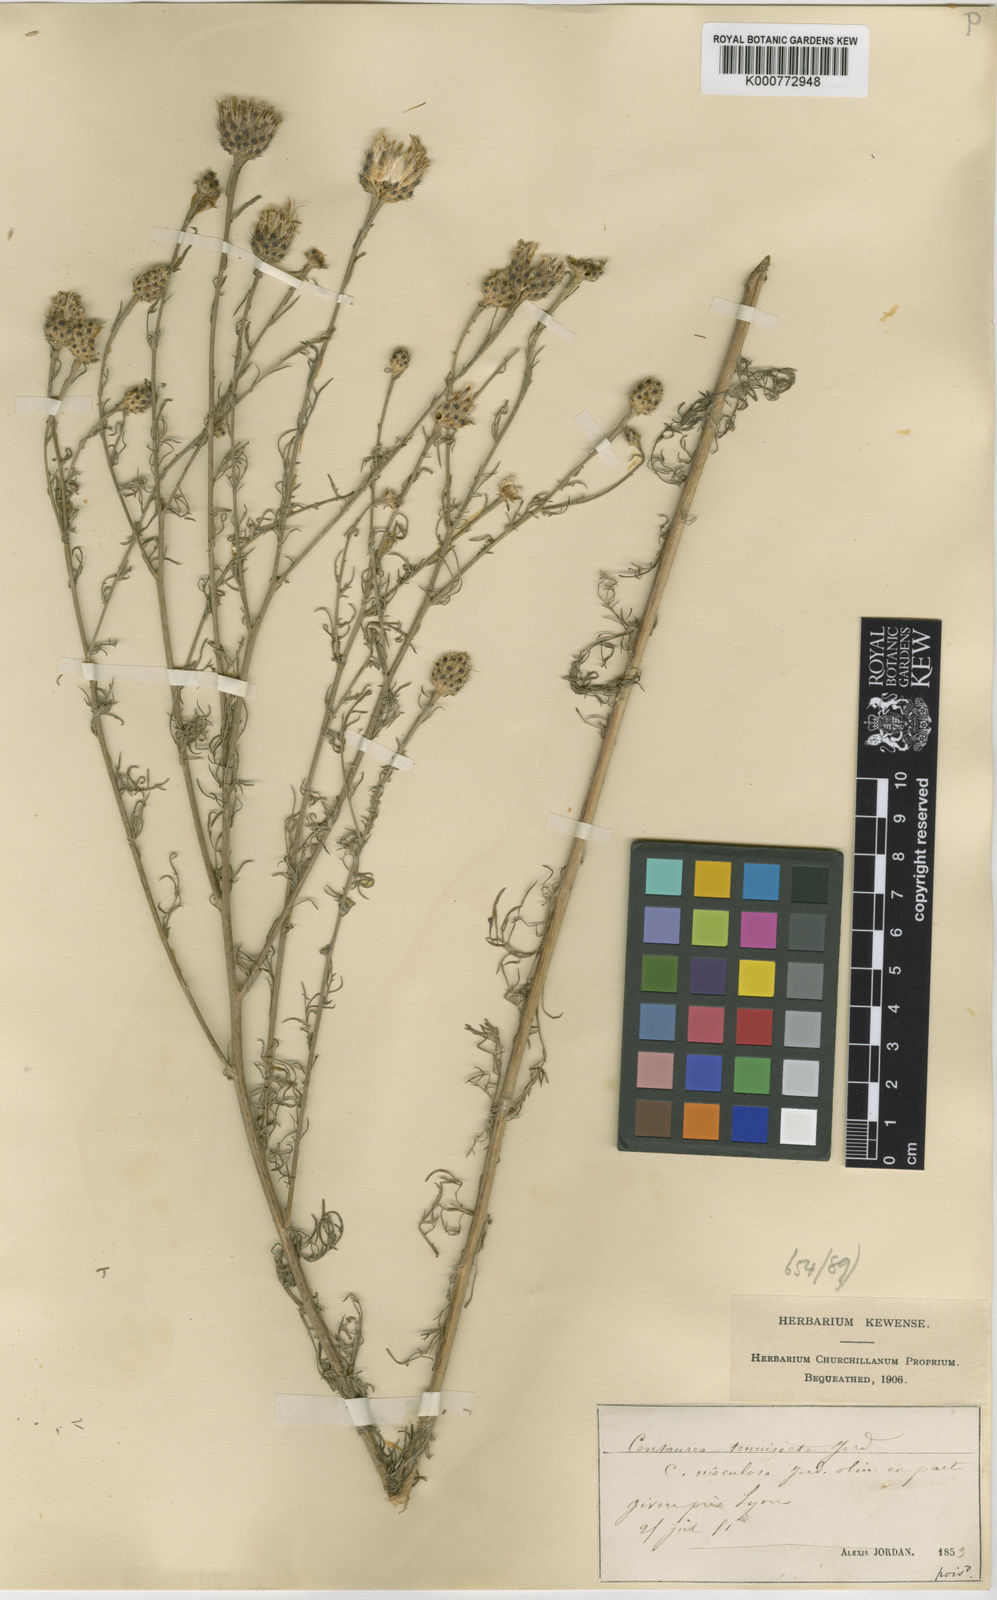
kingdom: Plantae
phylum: Tracheophyta
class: Magnoliopsida
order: Asterales
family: Asteraceae
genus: Centaurea
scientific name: Centaurea stoebe
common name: Spotted knapweed
